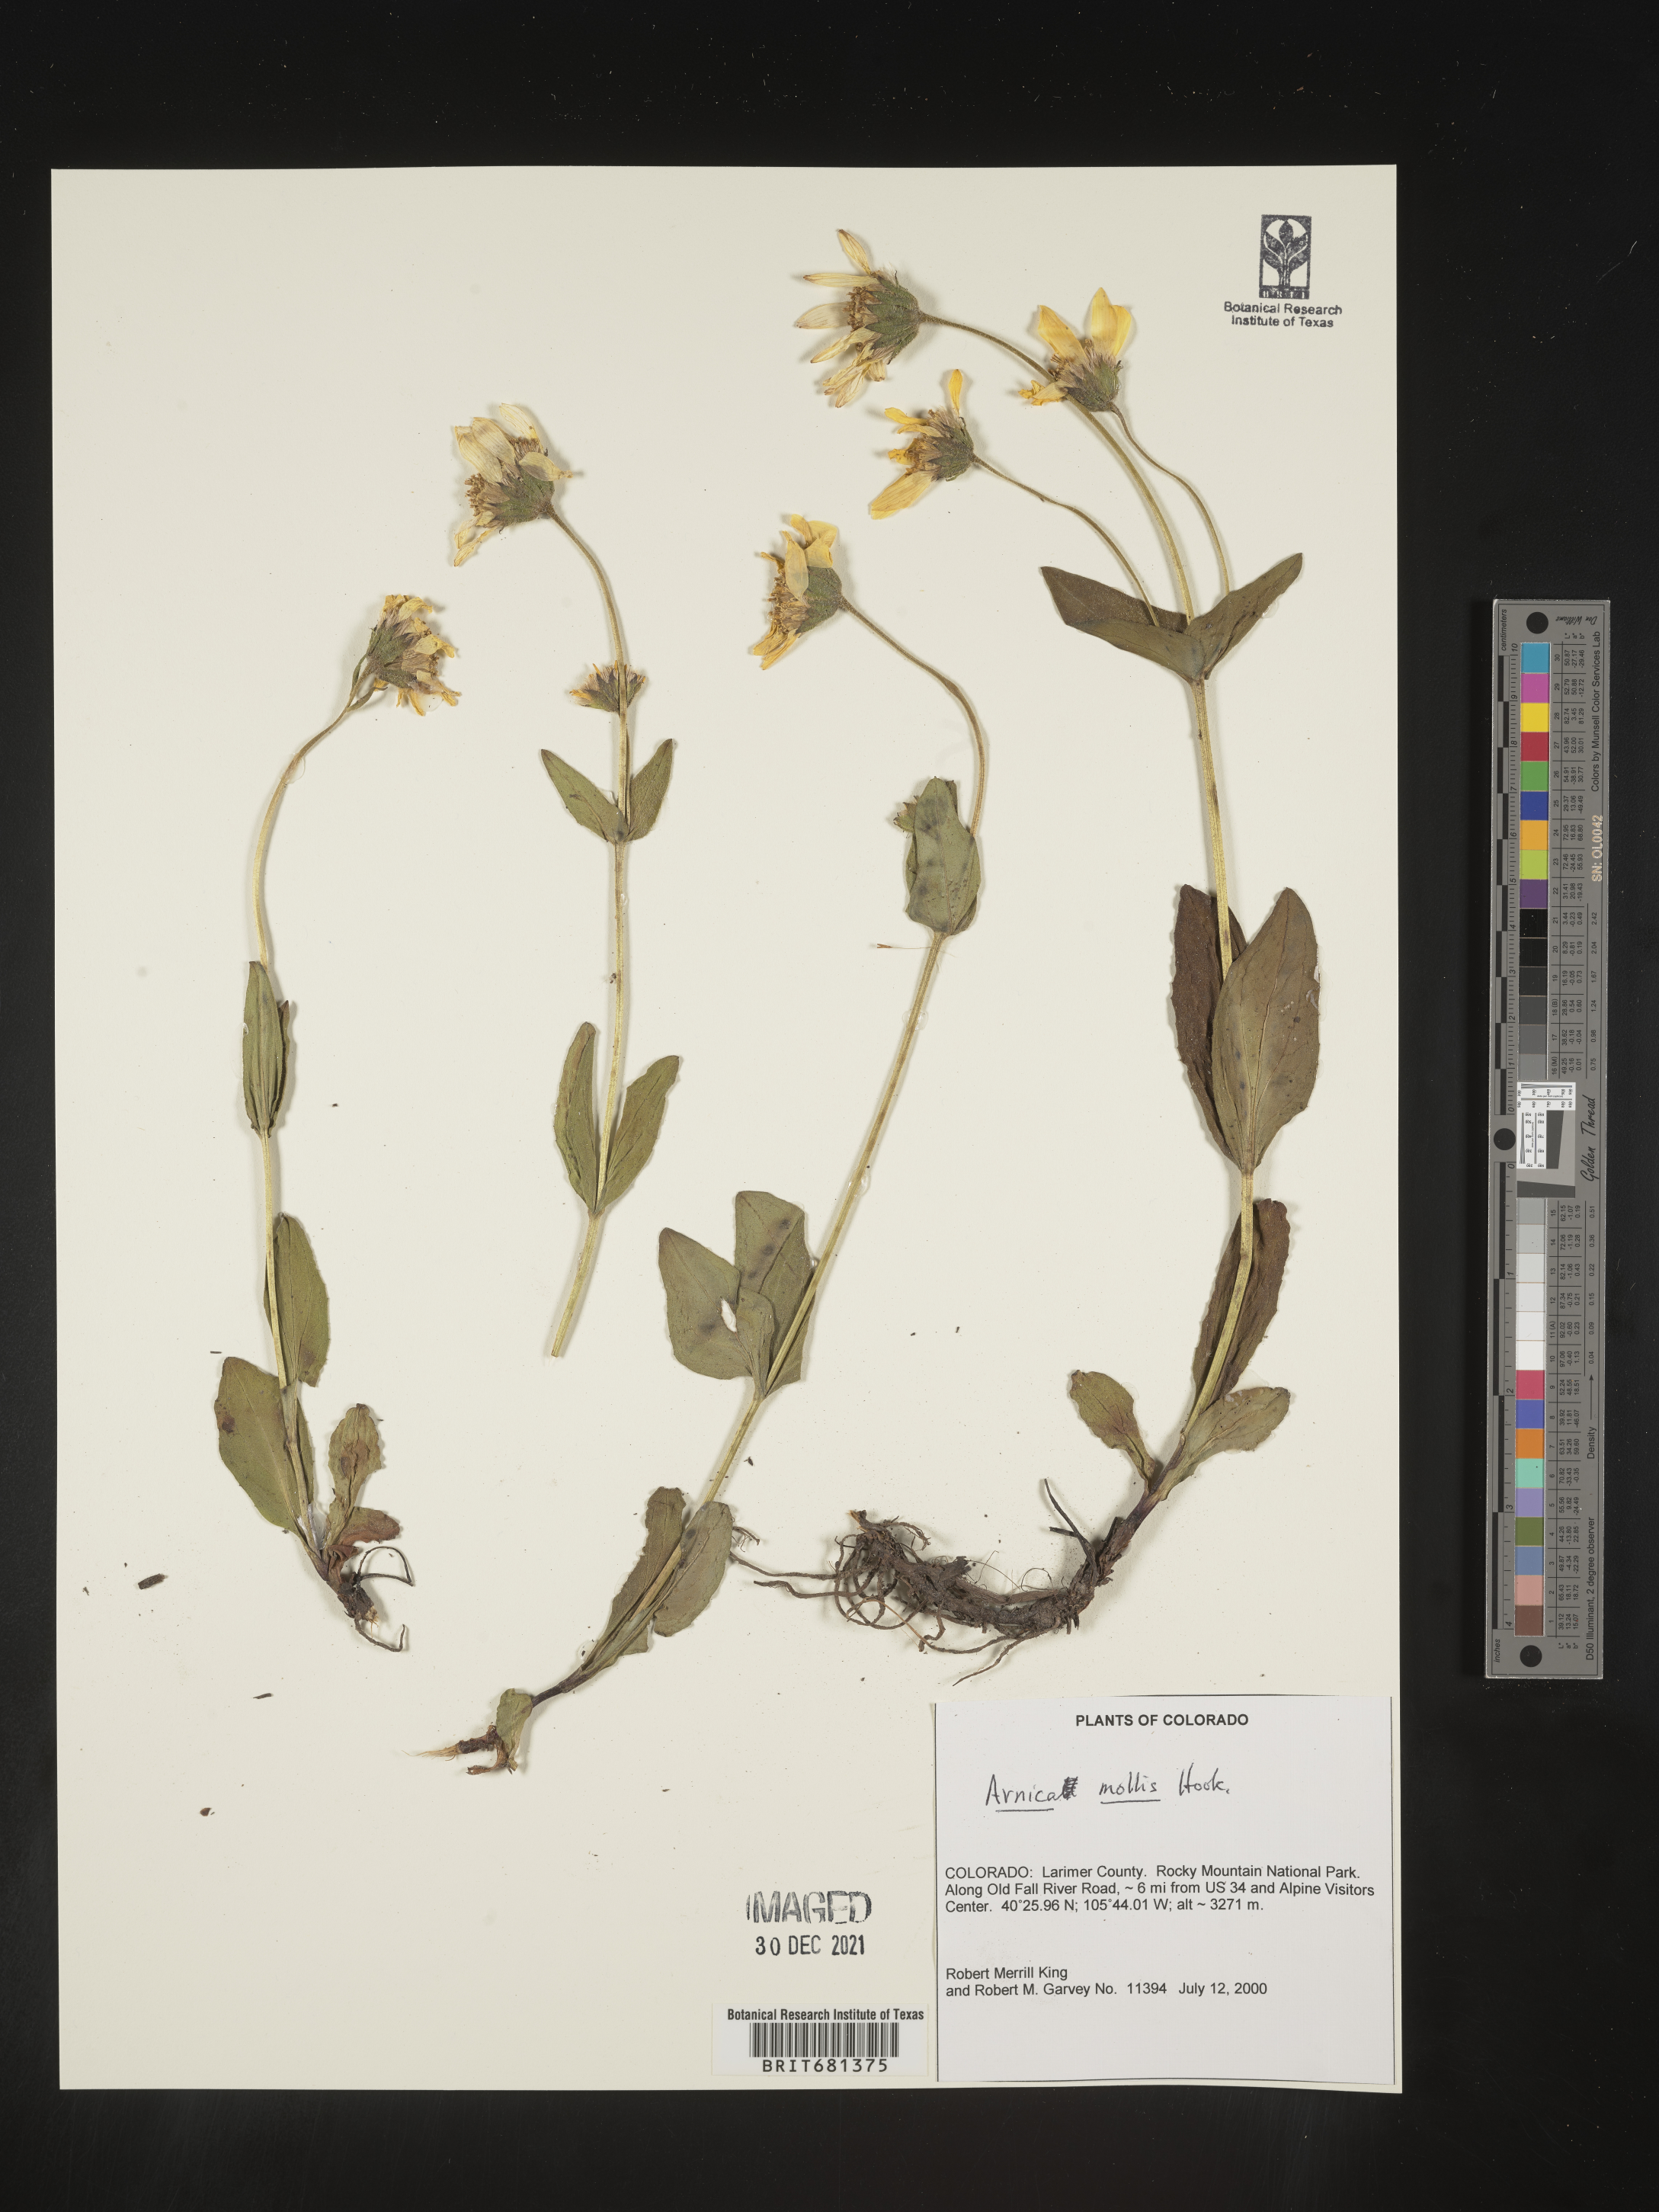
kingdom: Plantae
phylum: Tracheophyta
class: Magnoliopsida
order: Asterales
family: Asteraceae
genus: Arnica
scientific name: Arnica mollis
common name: Hairy arnica
